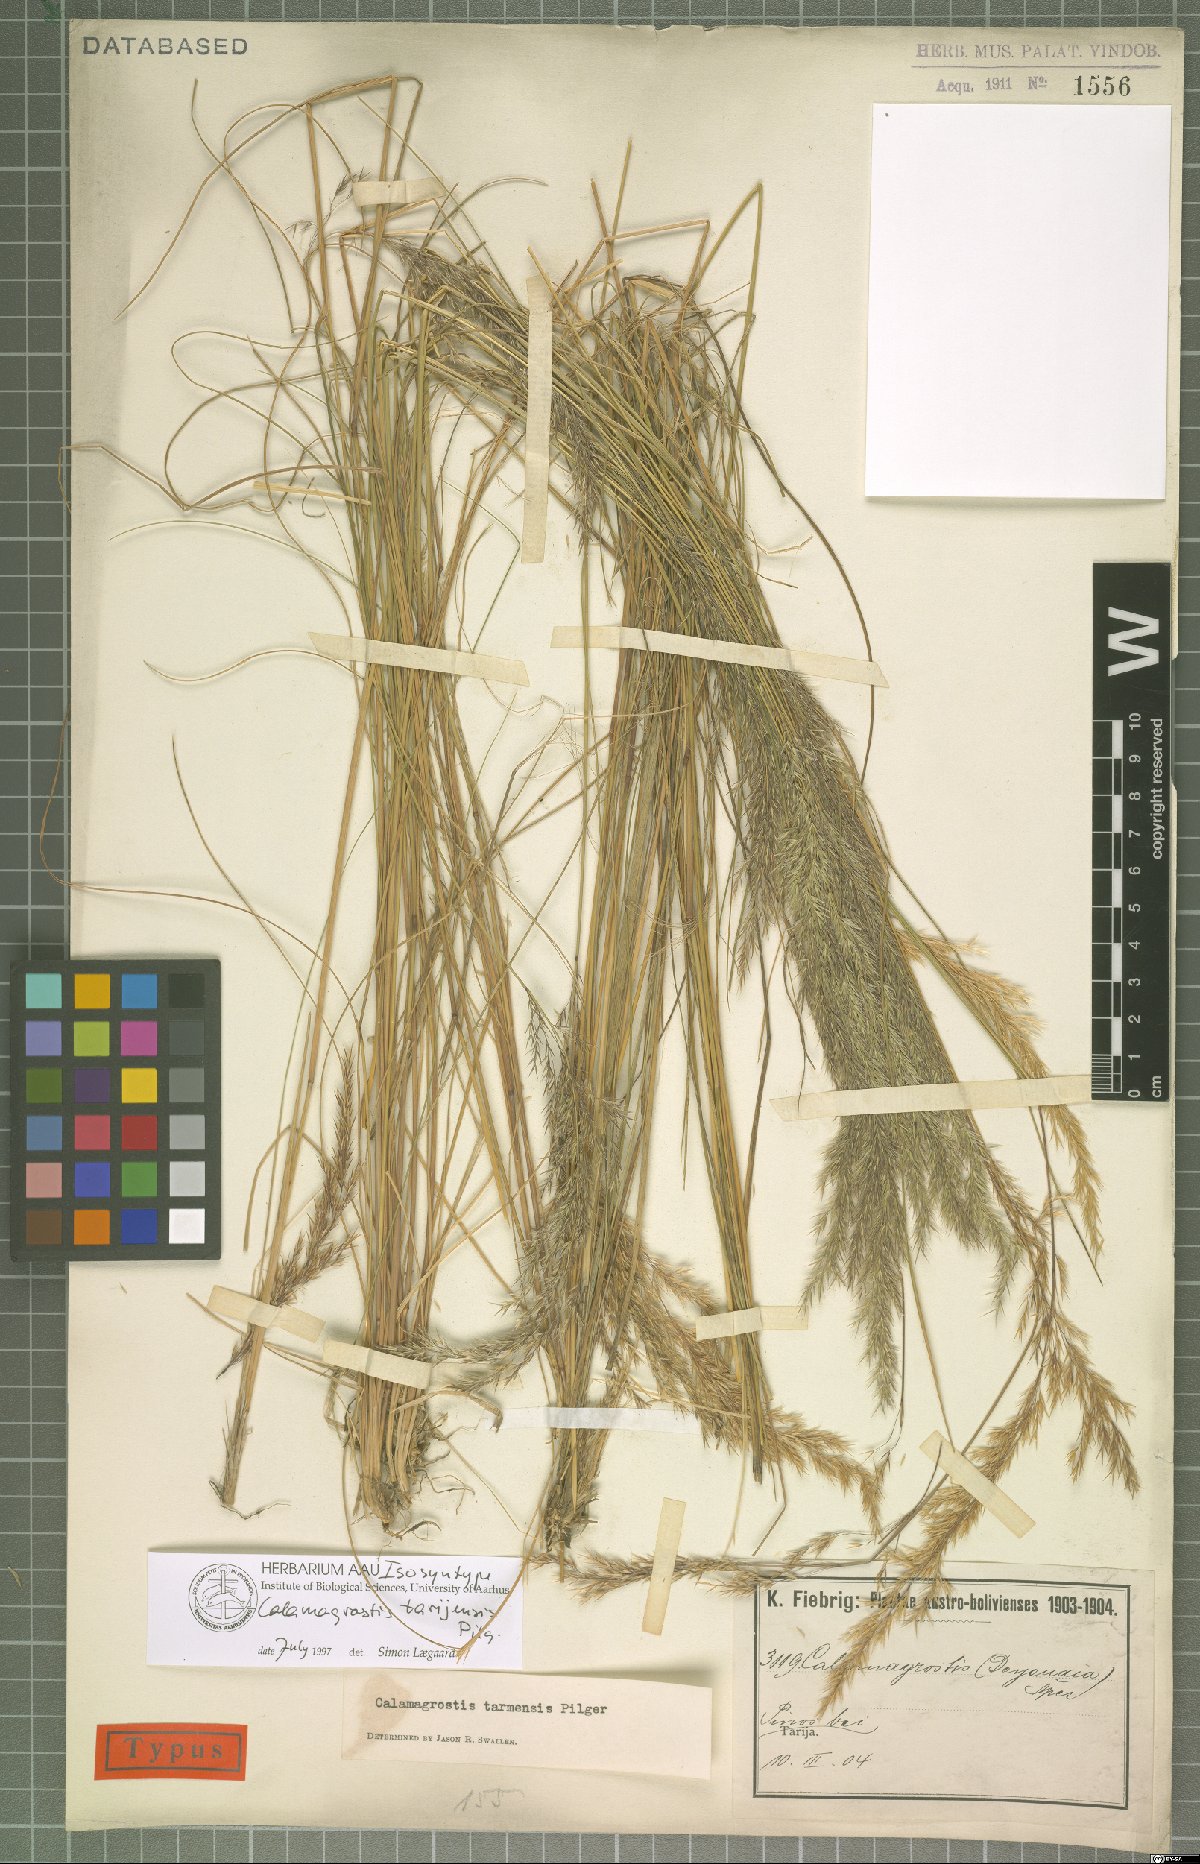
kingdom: Plantae
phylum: Tracheophyta
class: Liliopsida
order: Poales
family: Poaceae
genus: Cinnagrostis
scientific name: Cinnagrostis tarmensis
